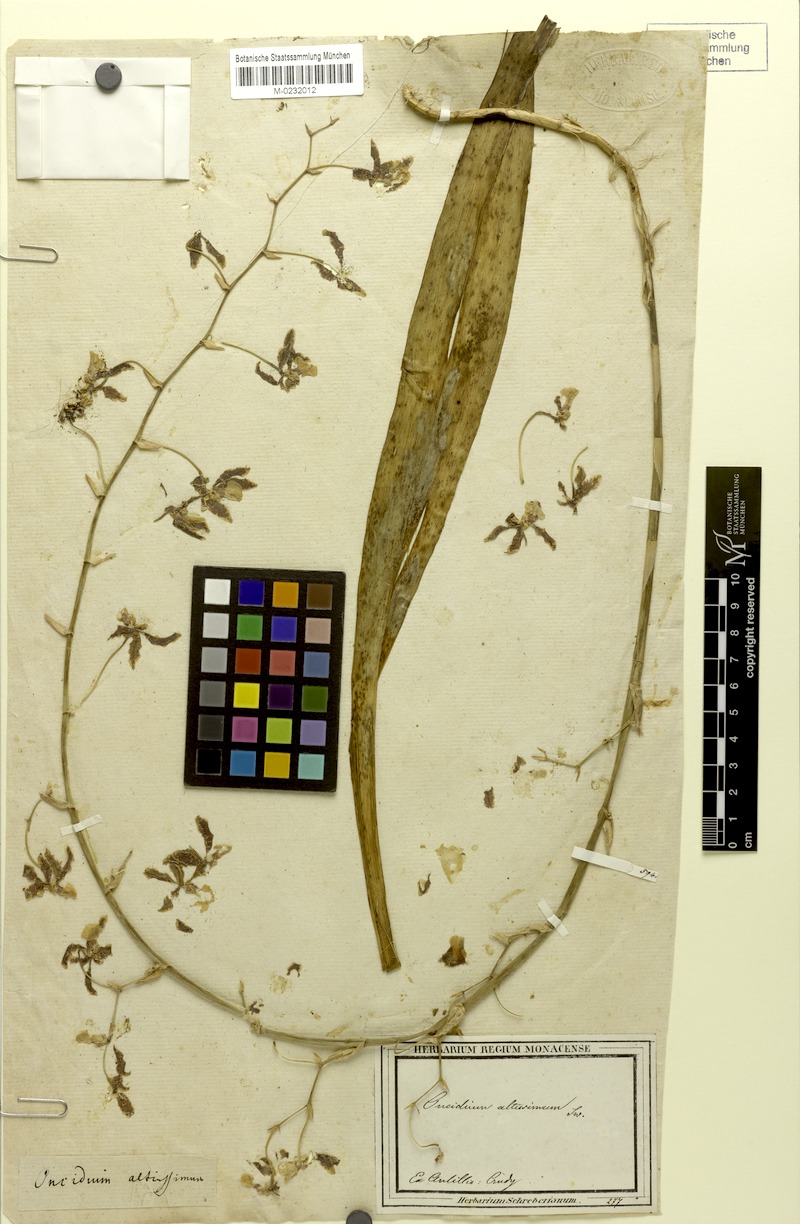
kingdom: Plantae
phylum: Tracheophyta
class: Liliopsida
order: Asparagales
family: Orchidaceae
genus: Oncidium
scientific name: Oncidium altissimum
